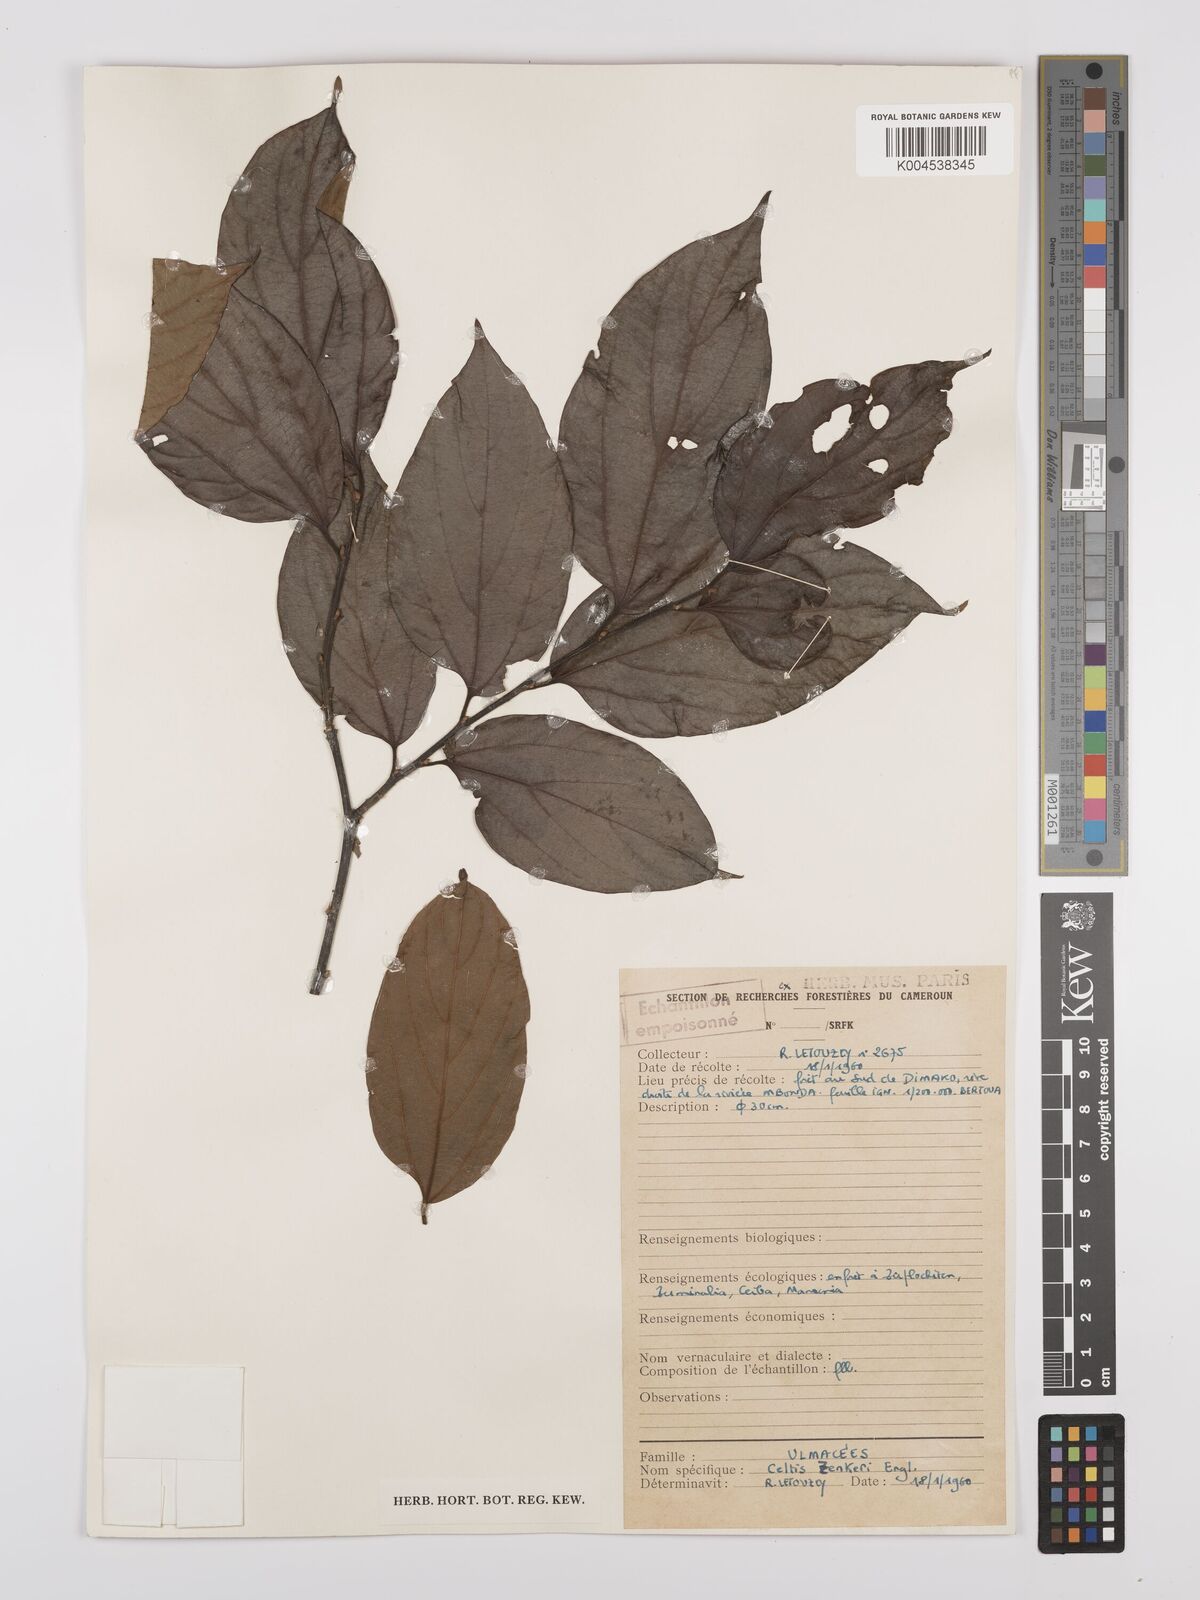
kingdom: Plantae
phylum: Tracheophyta
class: Magnoliopsida
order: Rosales
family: Cannabaceae
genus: Celtis
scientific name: Celtis zenkeri
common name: African celtis
